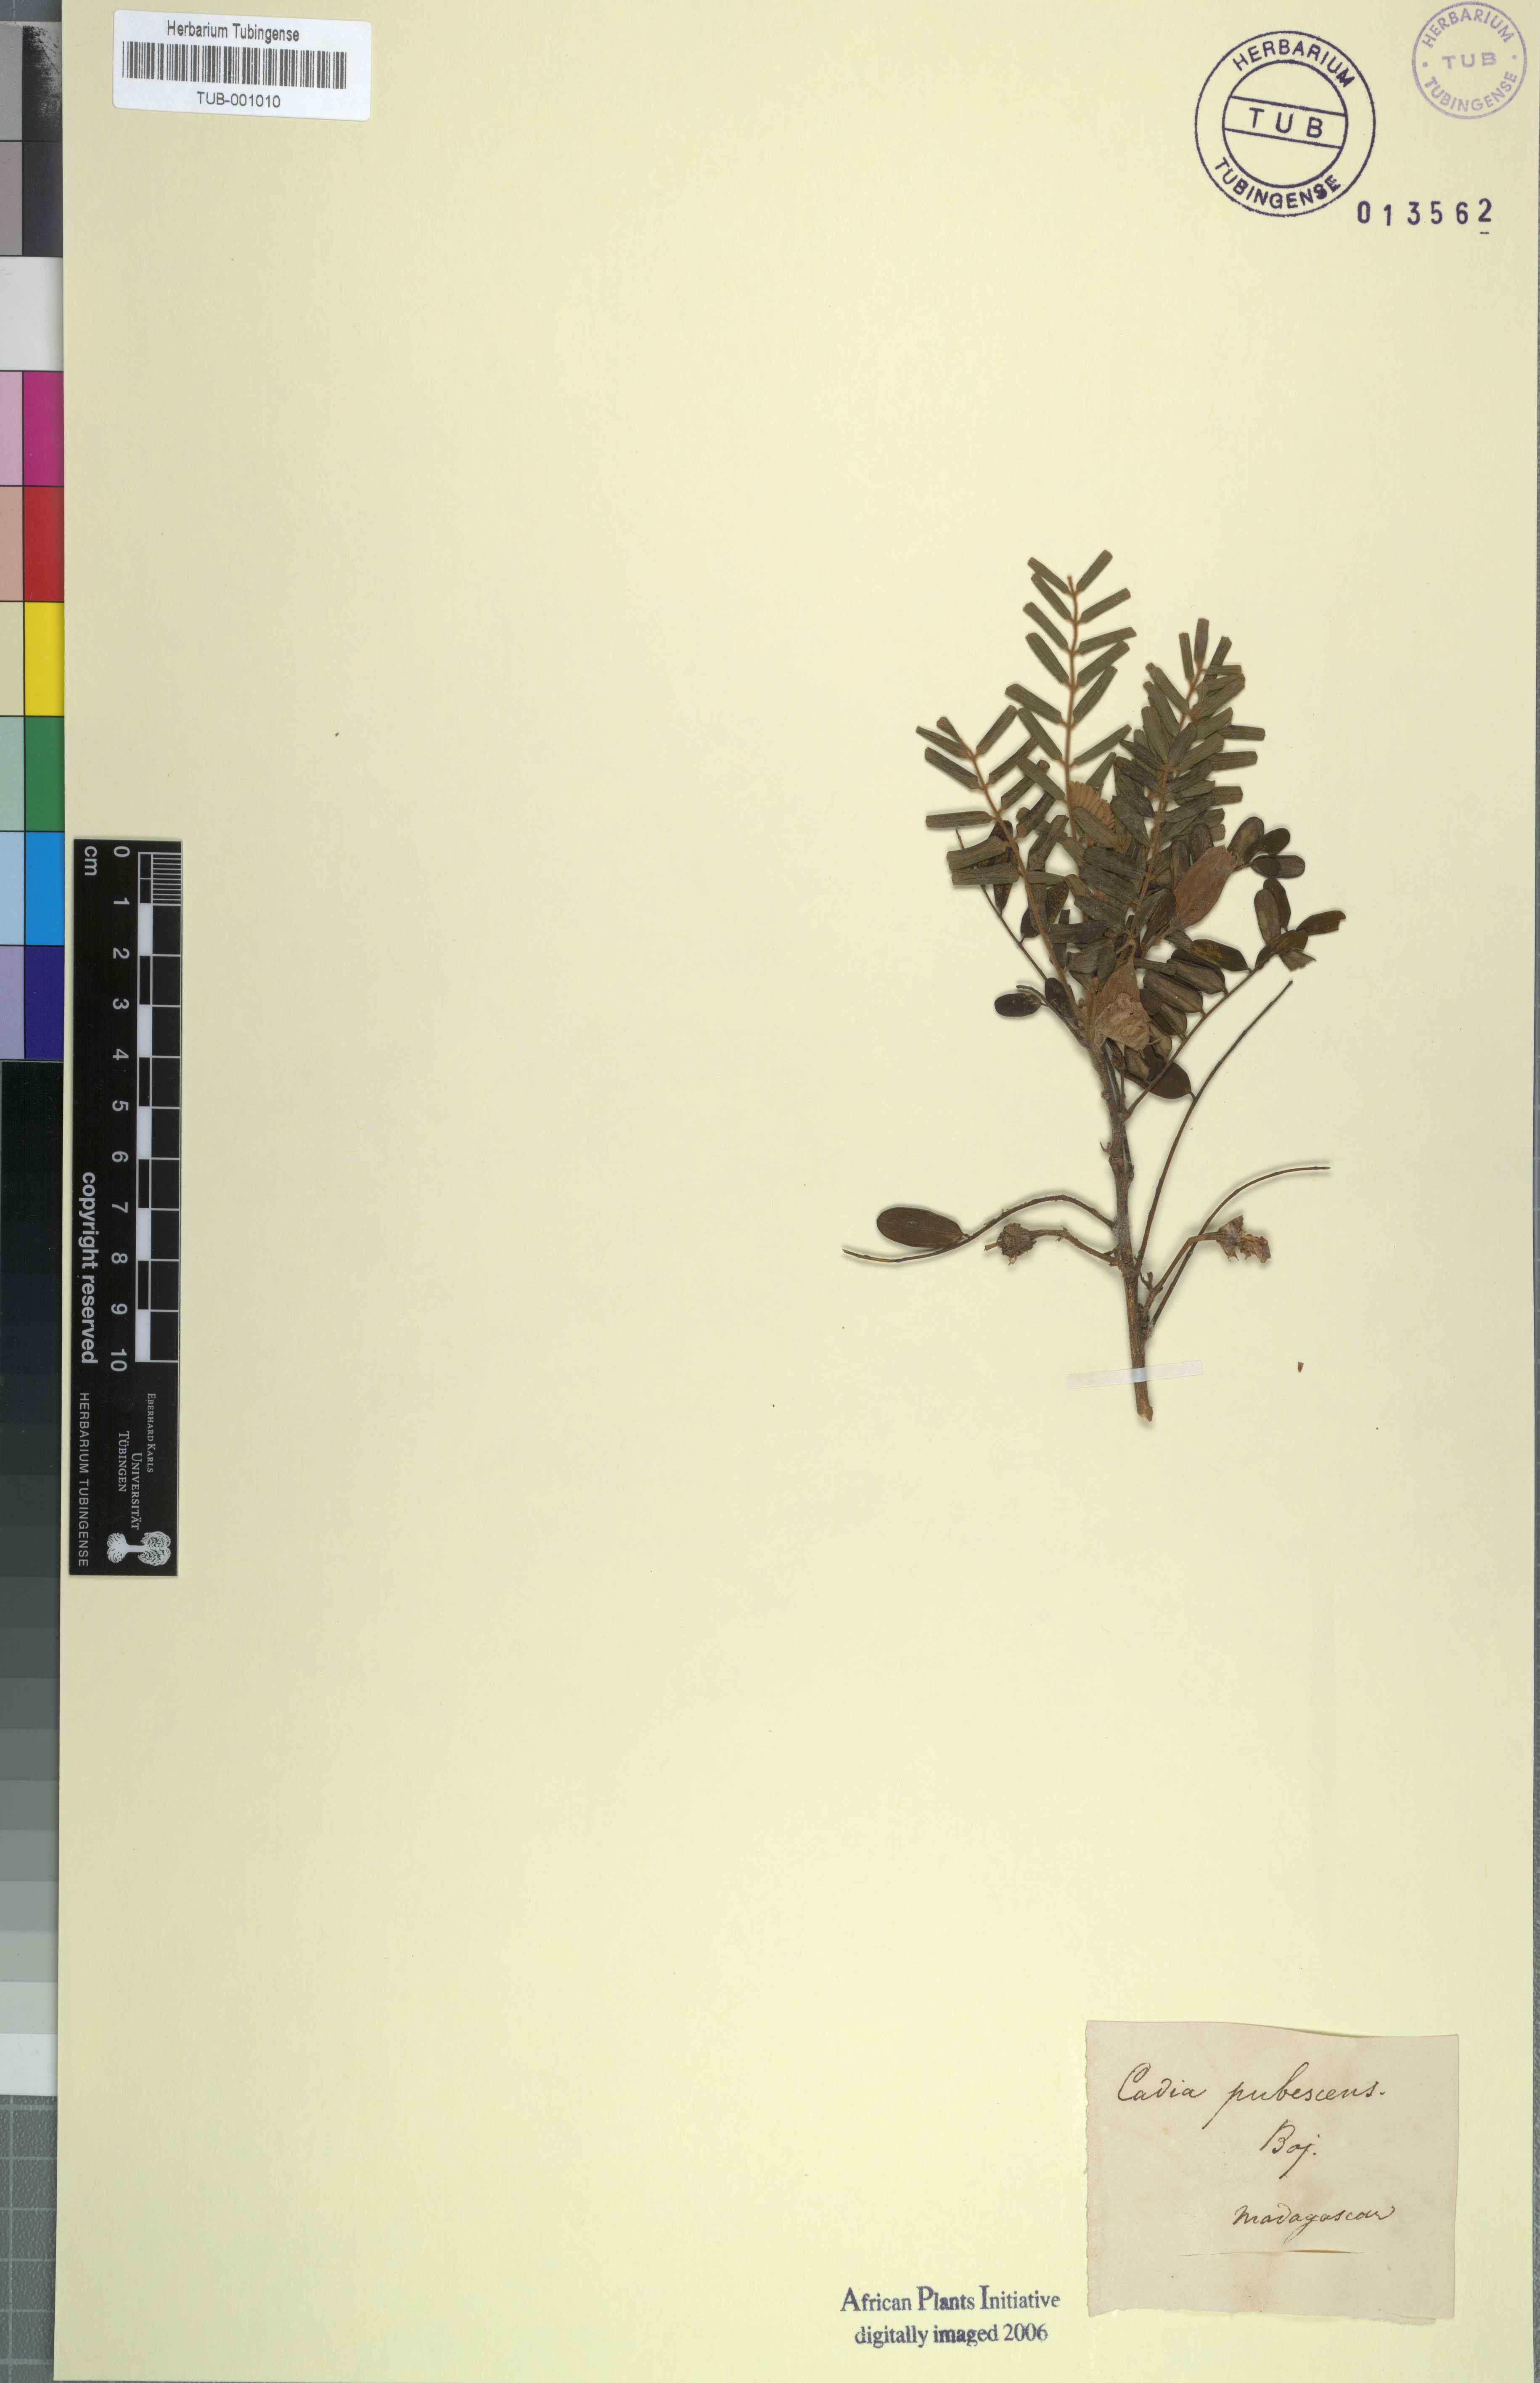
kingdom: Plantae
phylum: Tracheophyta
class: Magnoliopsida
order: Fabales
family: Fabaceae
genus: Cadia
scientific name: Cadia pubescens
